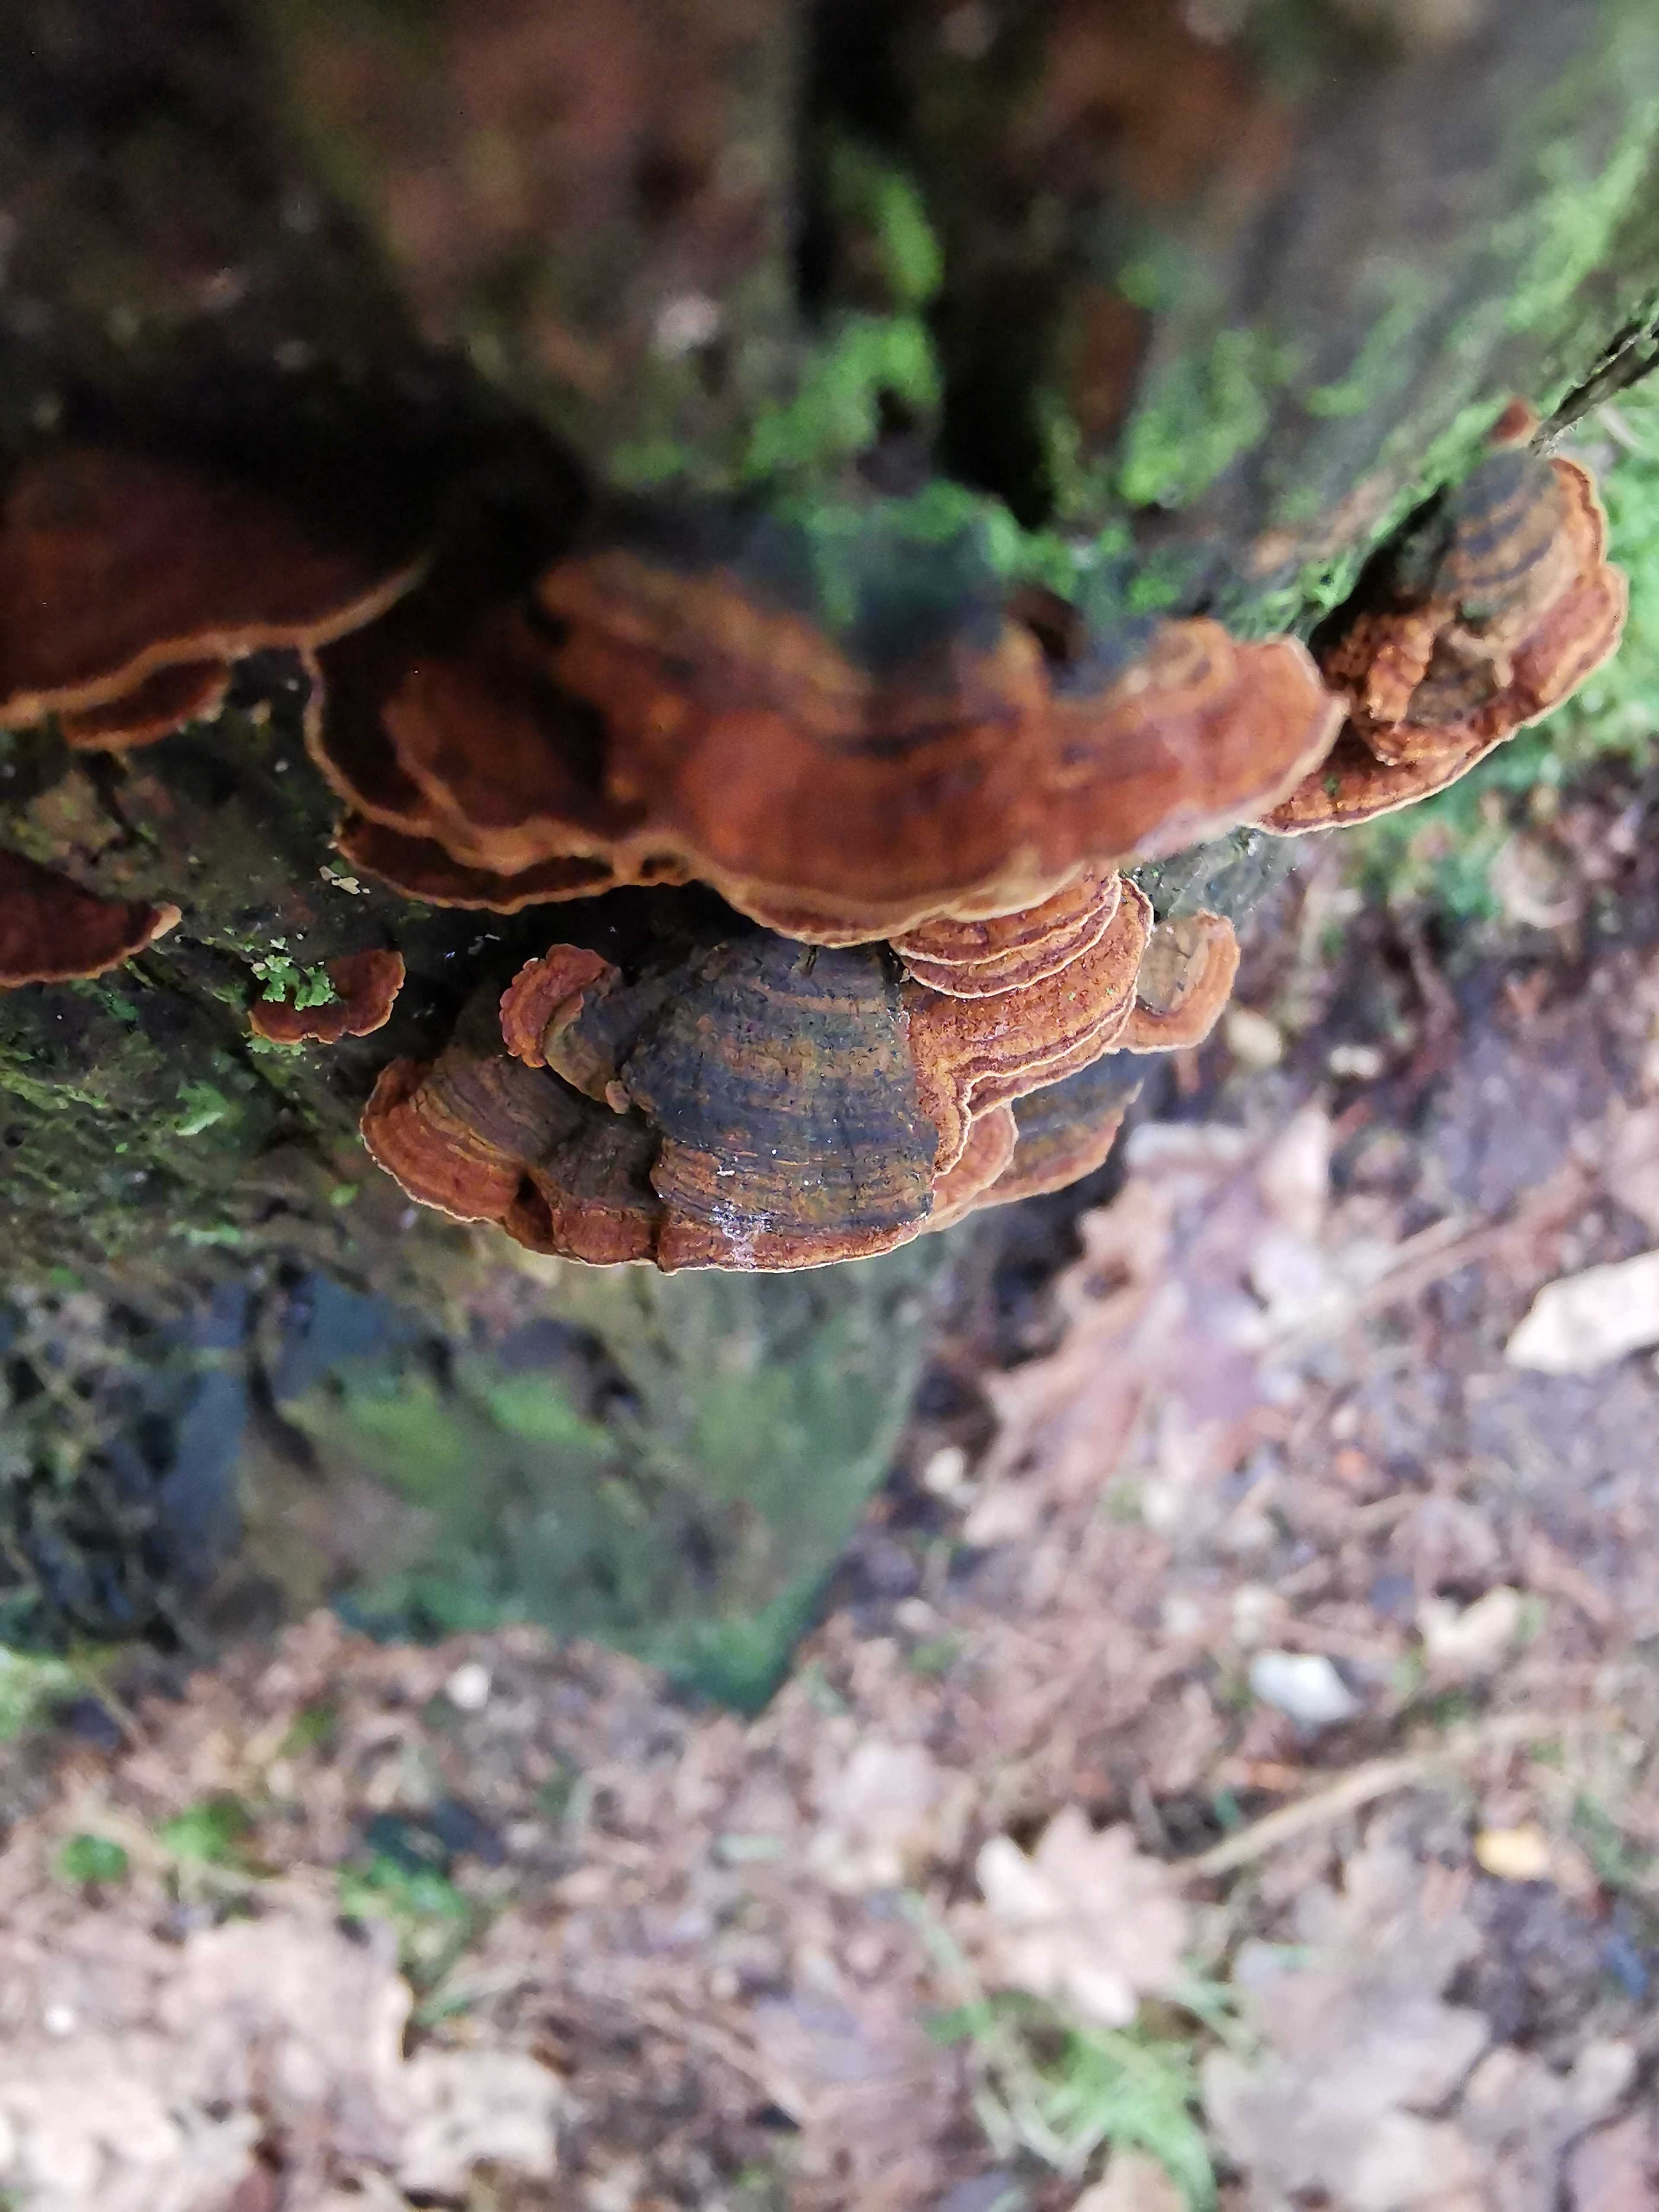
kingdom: Fungi
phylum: Basidiomycota
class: Agaricomycetes
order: Hymenochaetales
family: Hymenochaetaceae
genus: Hymenochaete
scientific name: Hymenochaete rubiginosa
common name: stiv ruslædersvamp
